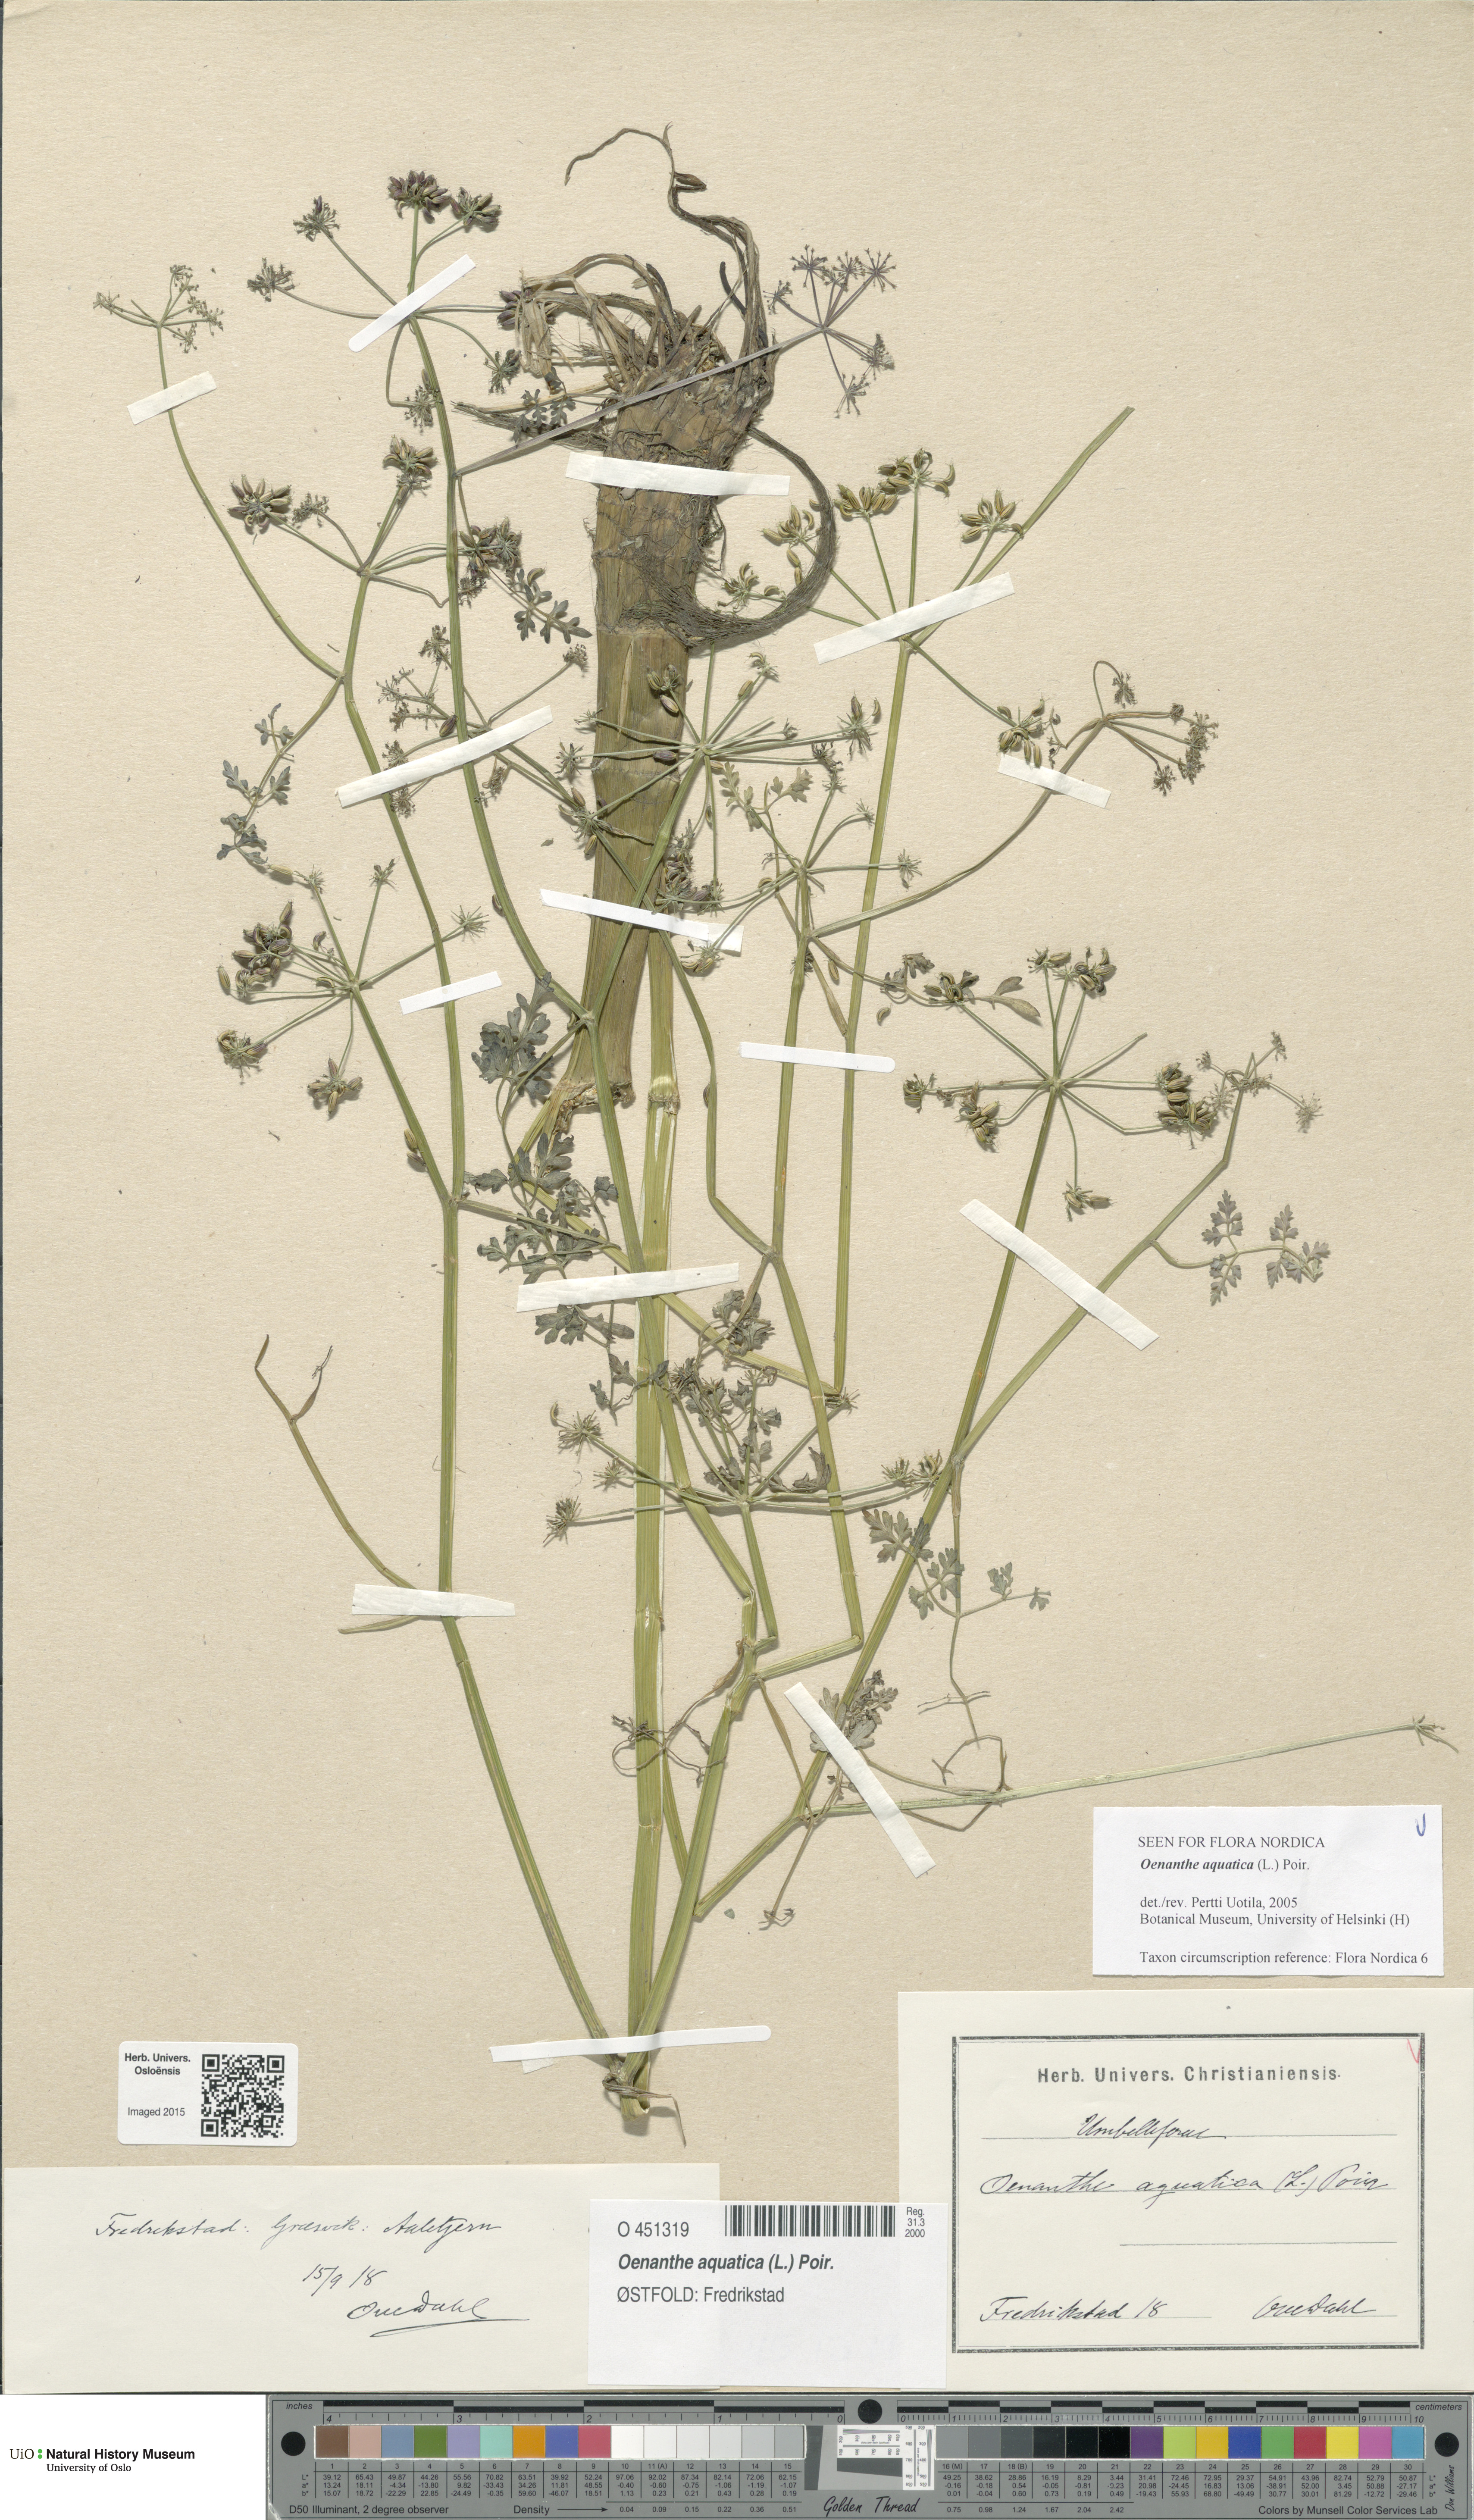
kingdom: Plantae
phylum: Tracheophyta
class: Magnoliopsida
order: Apiales
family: Apiaceae
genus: Oenanthe
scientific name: Oenanthe aquatica
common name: Fine-leaved water-dropwort
